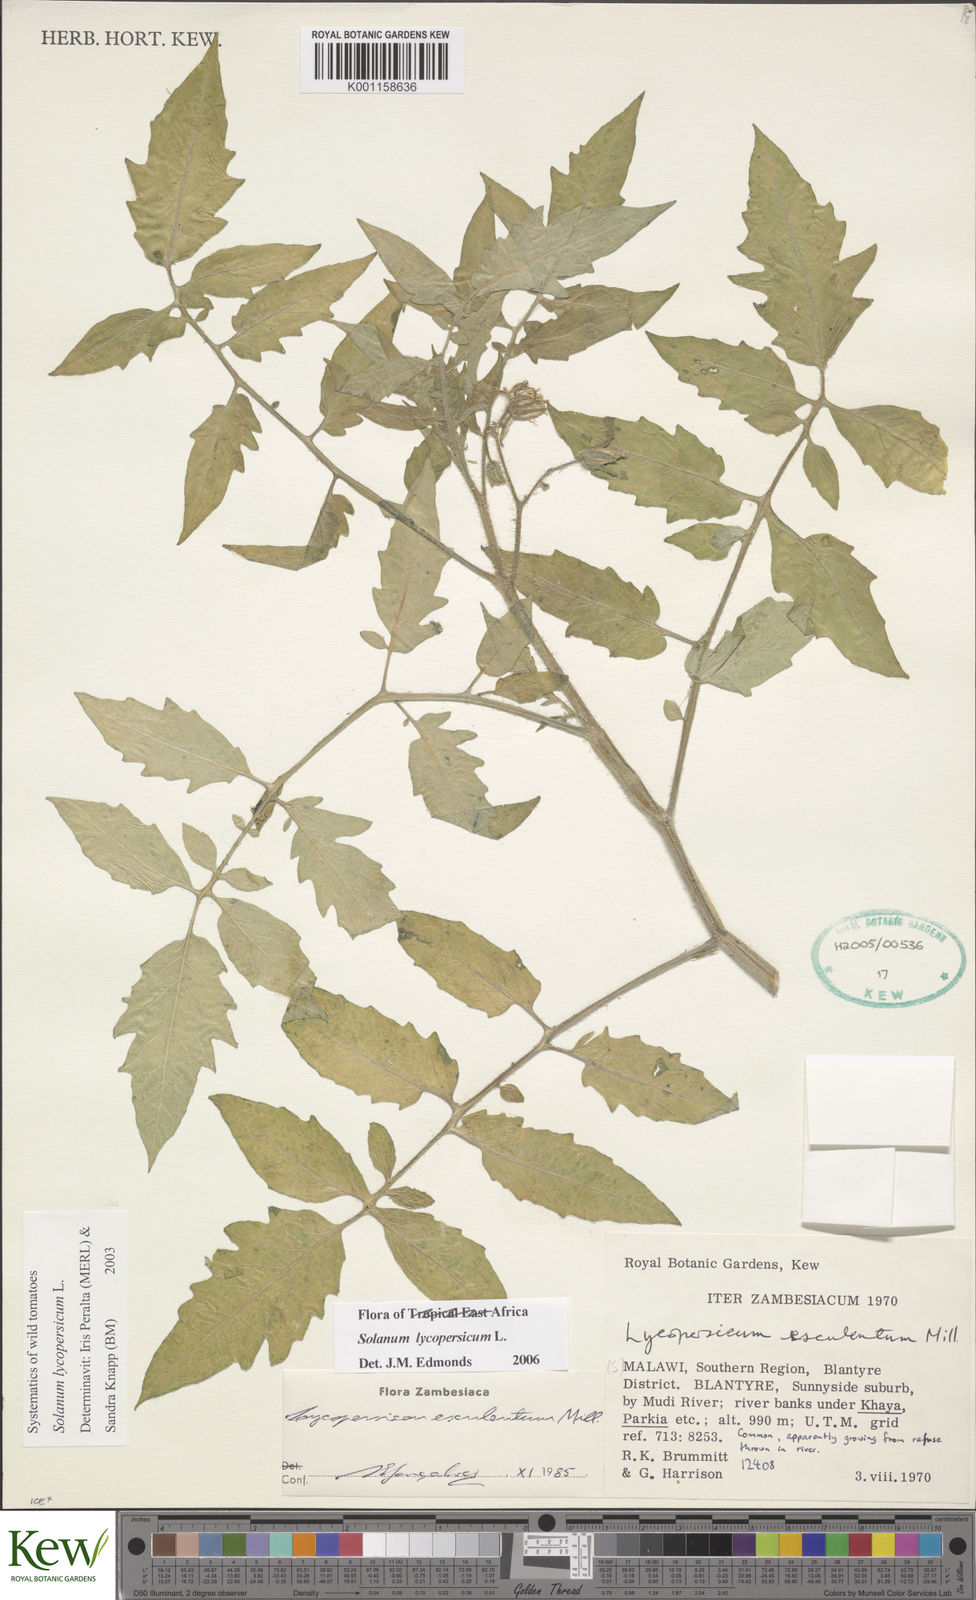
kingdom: Plantae
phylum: Tracheophyta
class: Magnoliopsida
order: Solanales
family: Solanaceae
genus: Solanum
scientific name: Solanum lycopersicum
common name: Garden tomato
